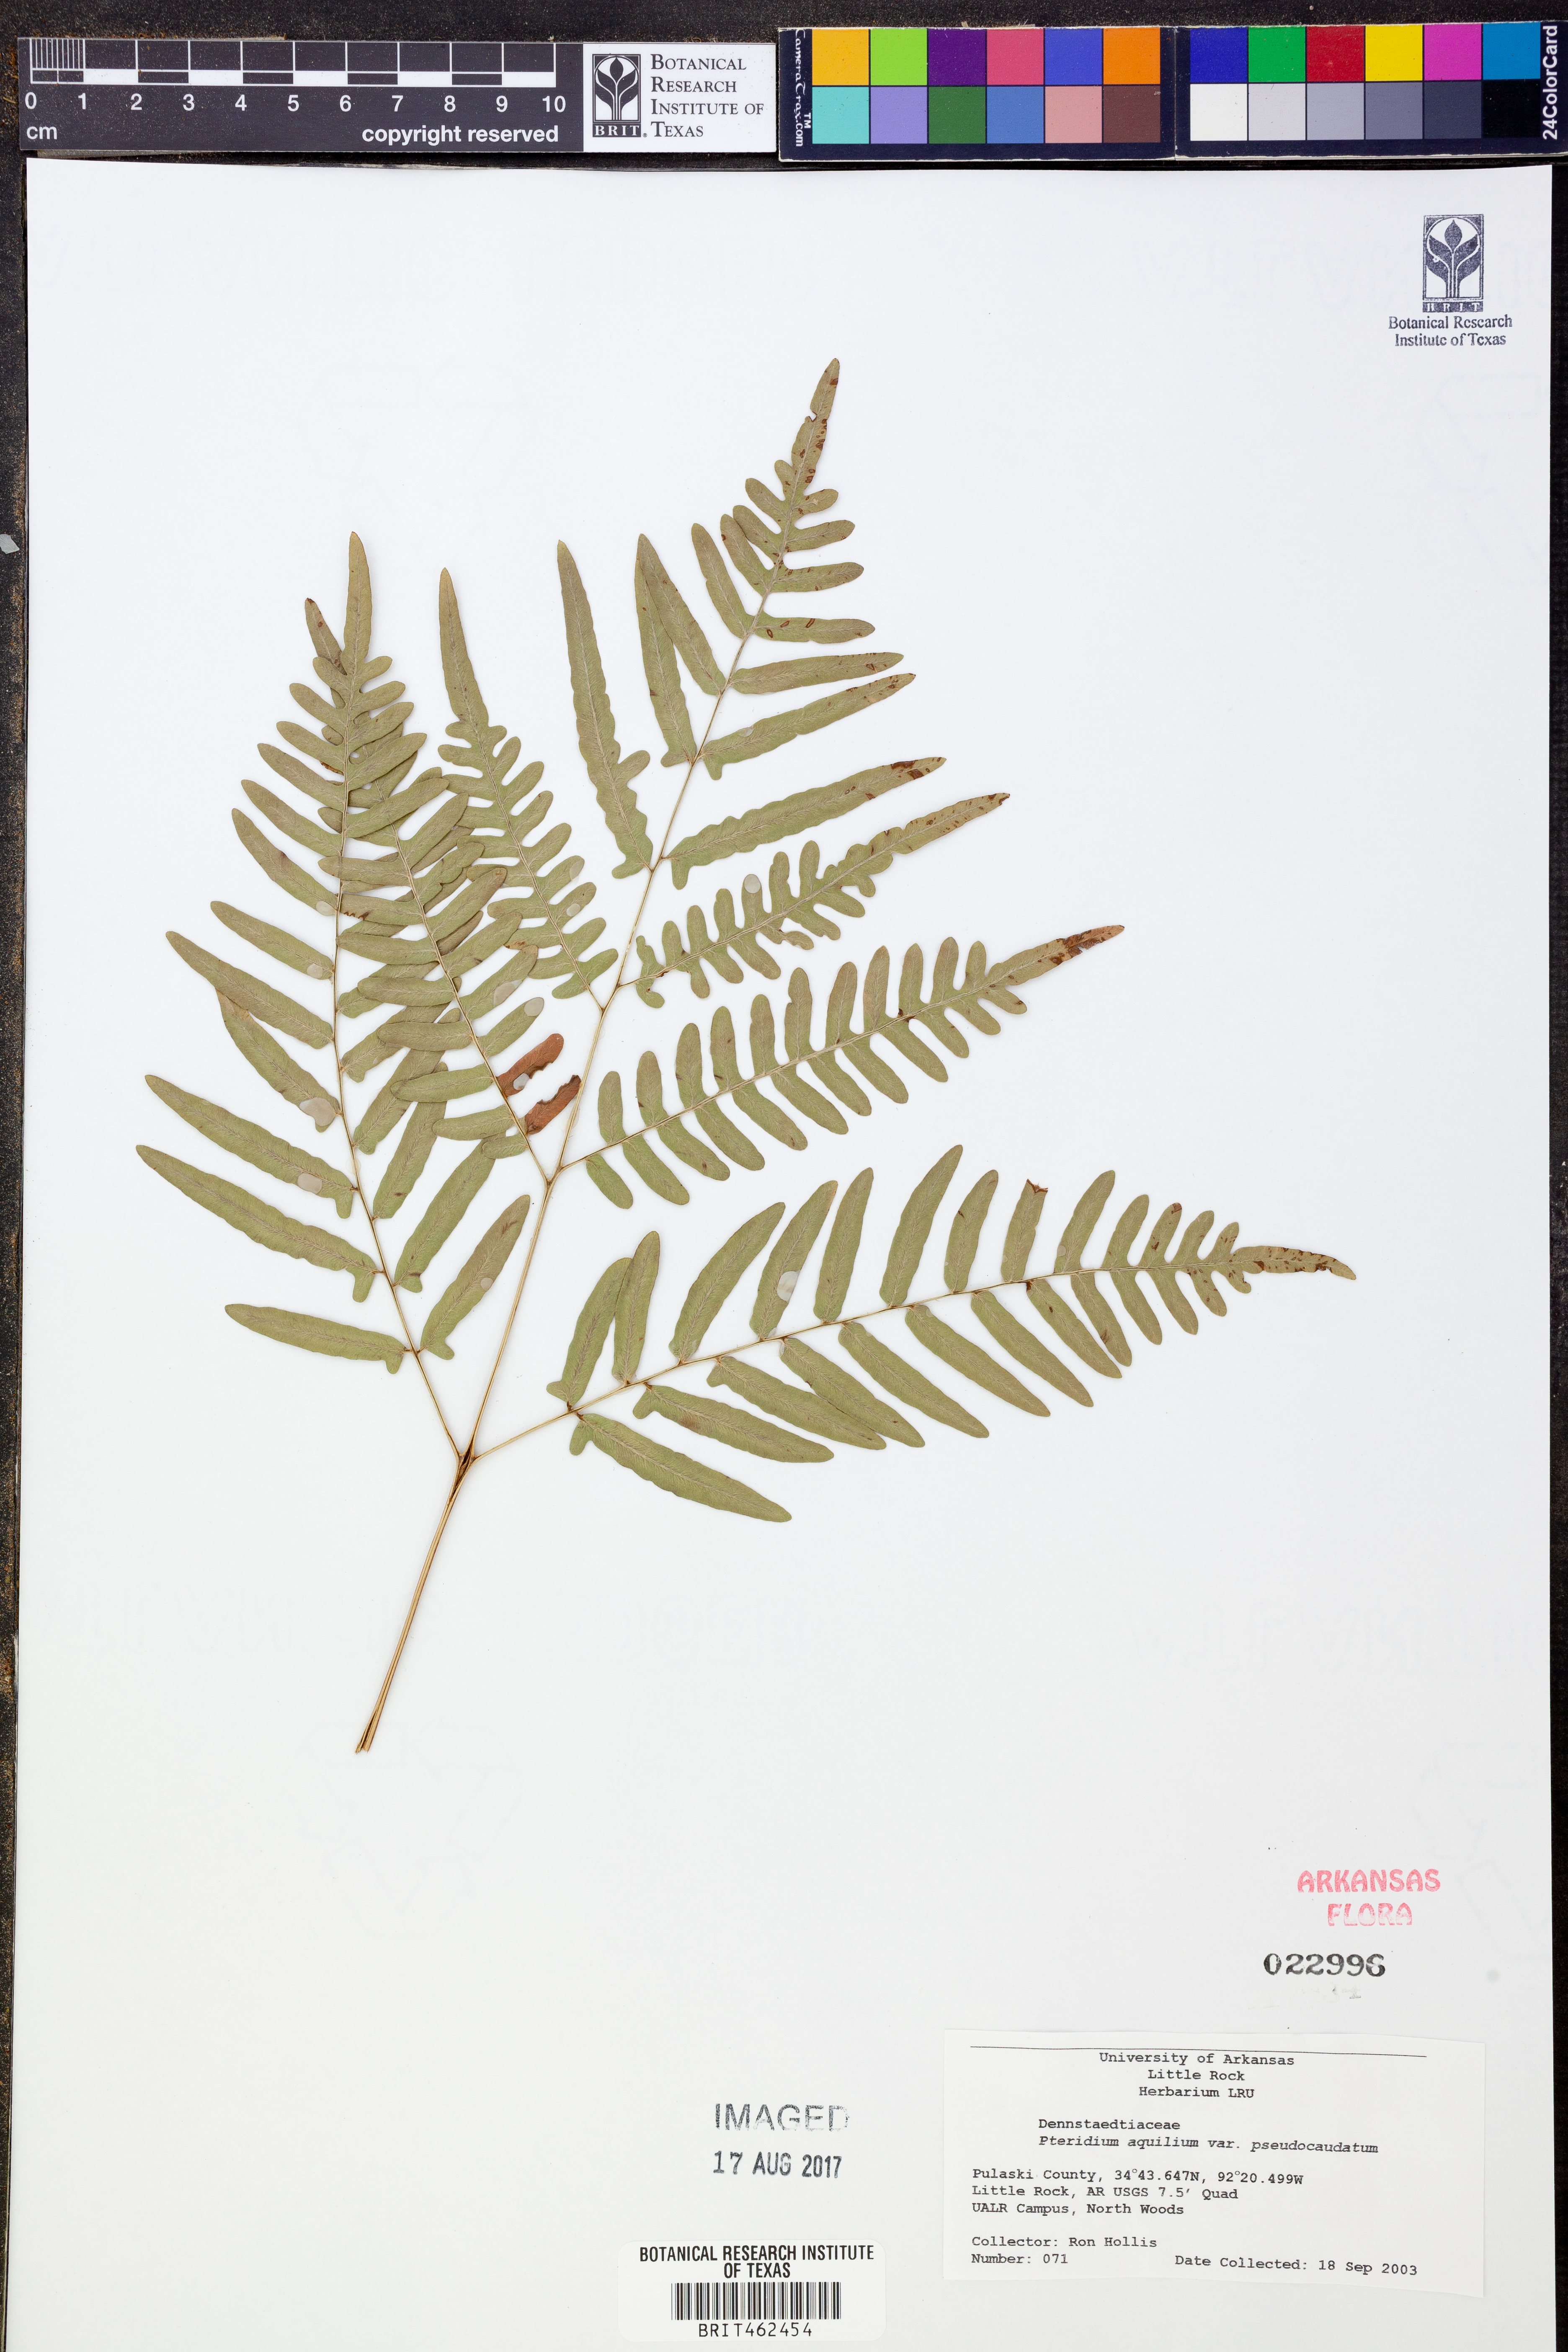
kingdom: Plantae
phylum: Tracheophyta
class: Polypodiopsida
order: Polypodiales
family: Dennstaedtiaceae
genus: Pteridium
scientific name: Pteridium aquilinum
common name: Bracken
